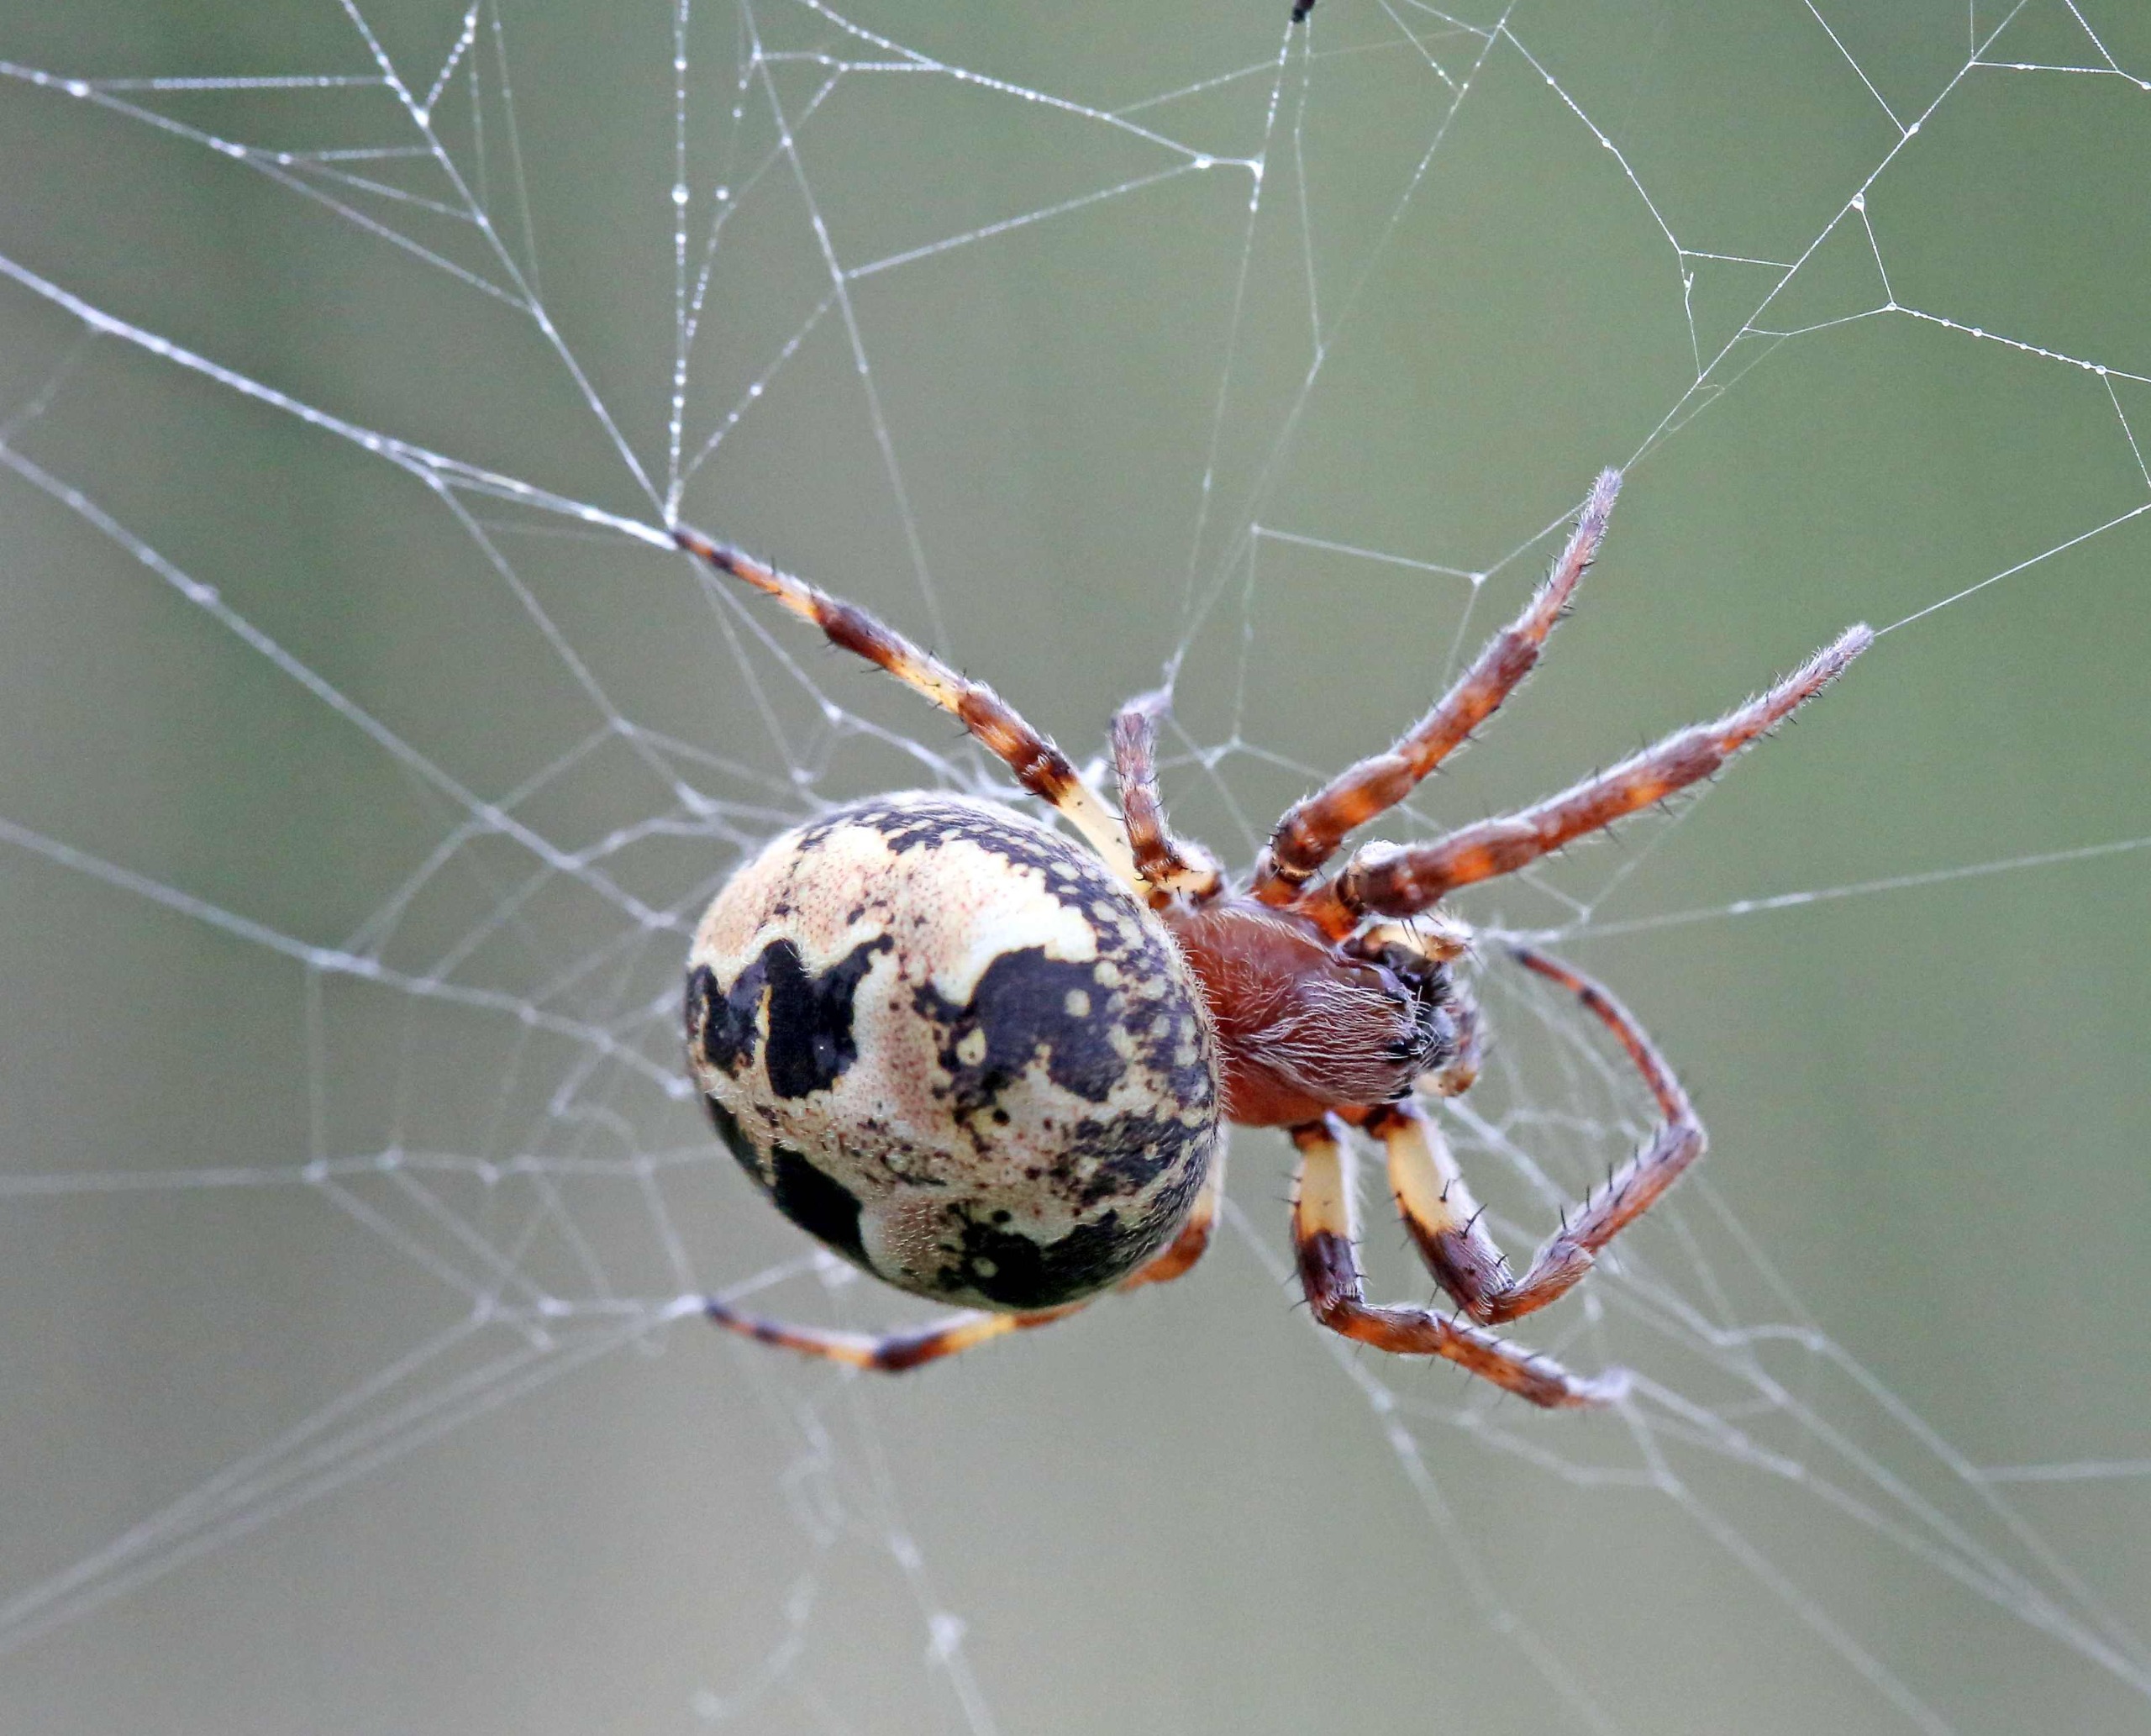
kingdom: Animalia
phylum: Arthropoda
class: Arachnida
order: Araneae
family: Araneidae
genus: Larinioides
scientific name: Larinioides cornutus
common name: Sivhjulspinder
